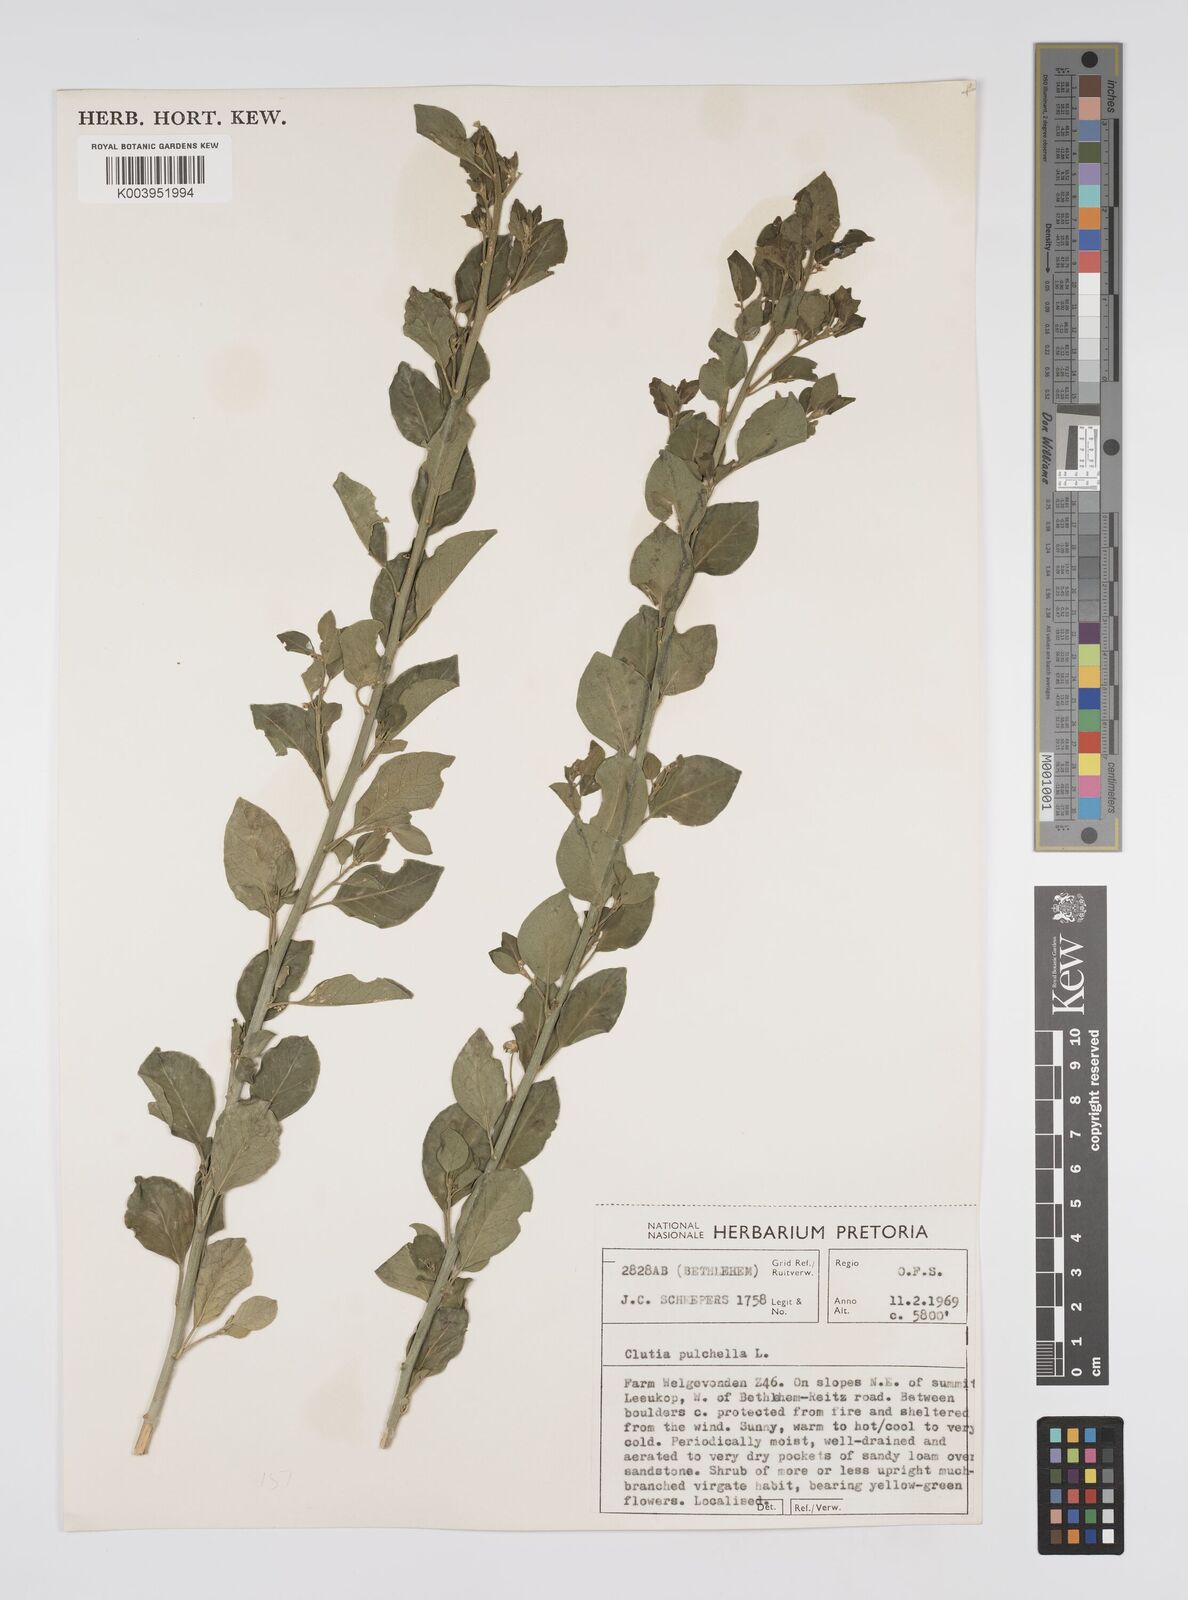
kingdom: Plantae
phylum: Tracheophyta
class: Magnoliopsida
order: Malpighiales
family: Peraceae
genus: Clutia
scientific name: Clutia pulchella
